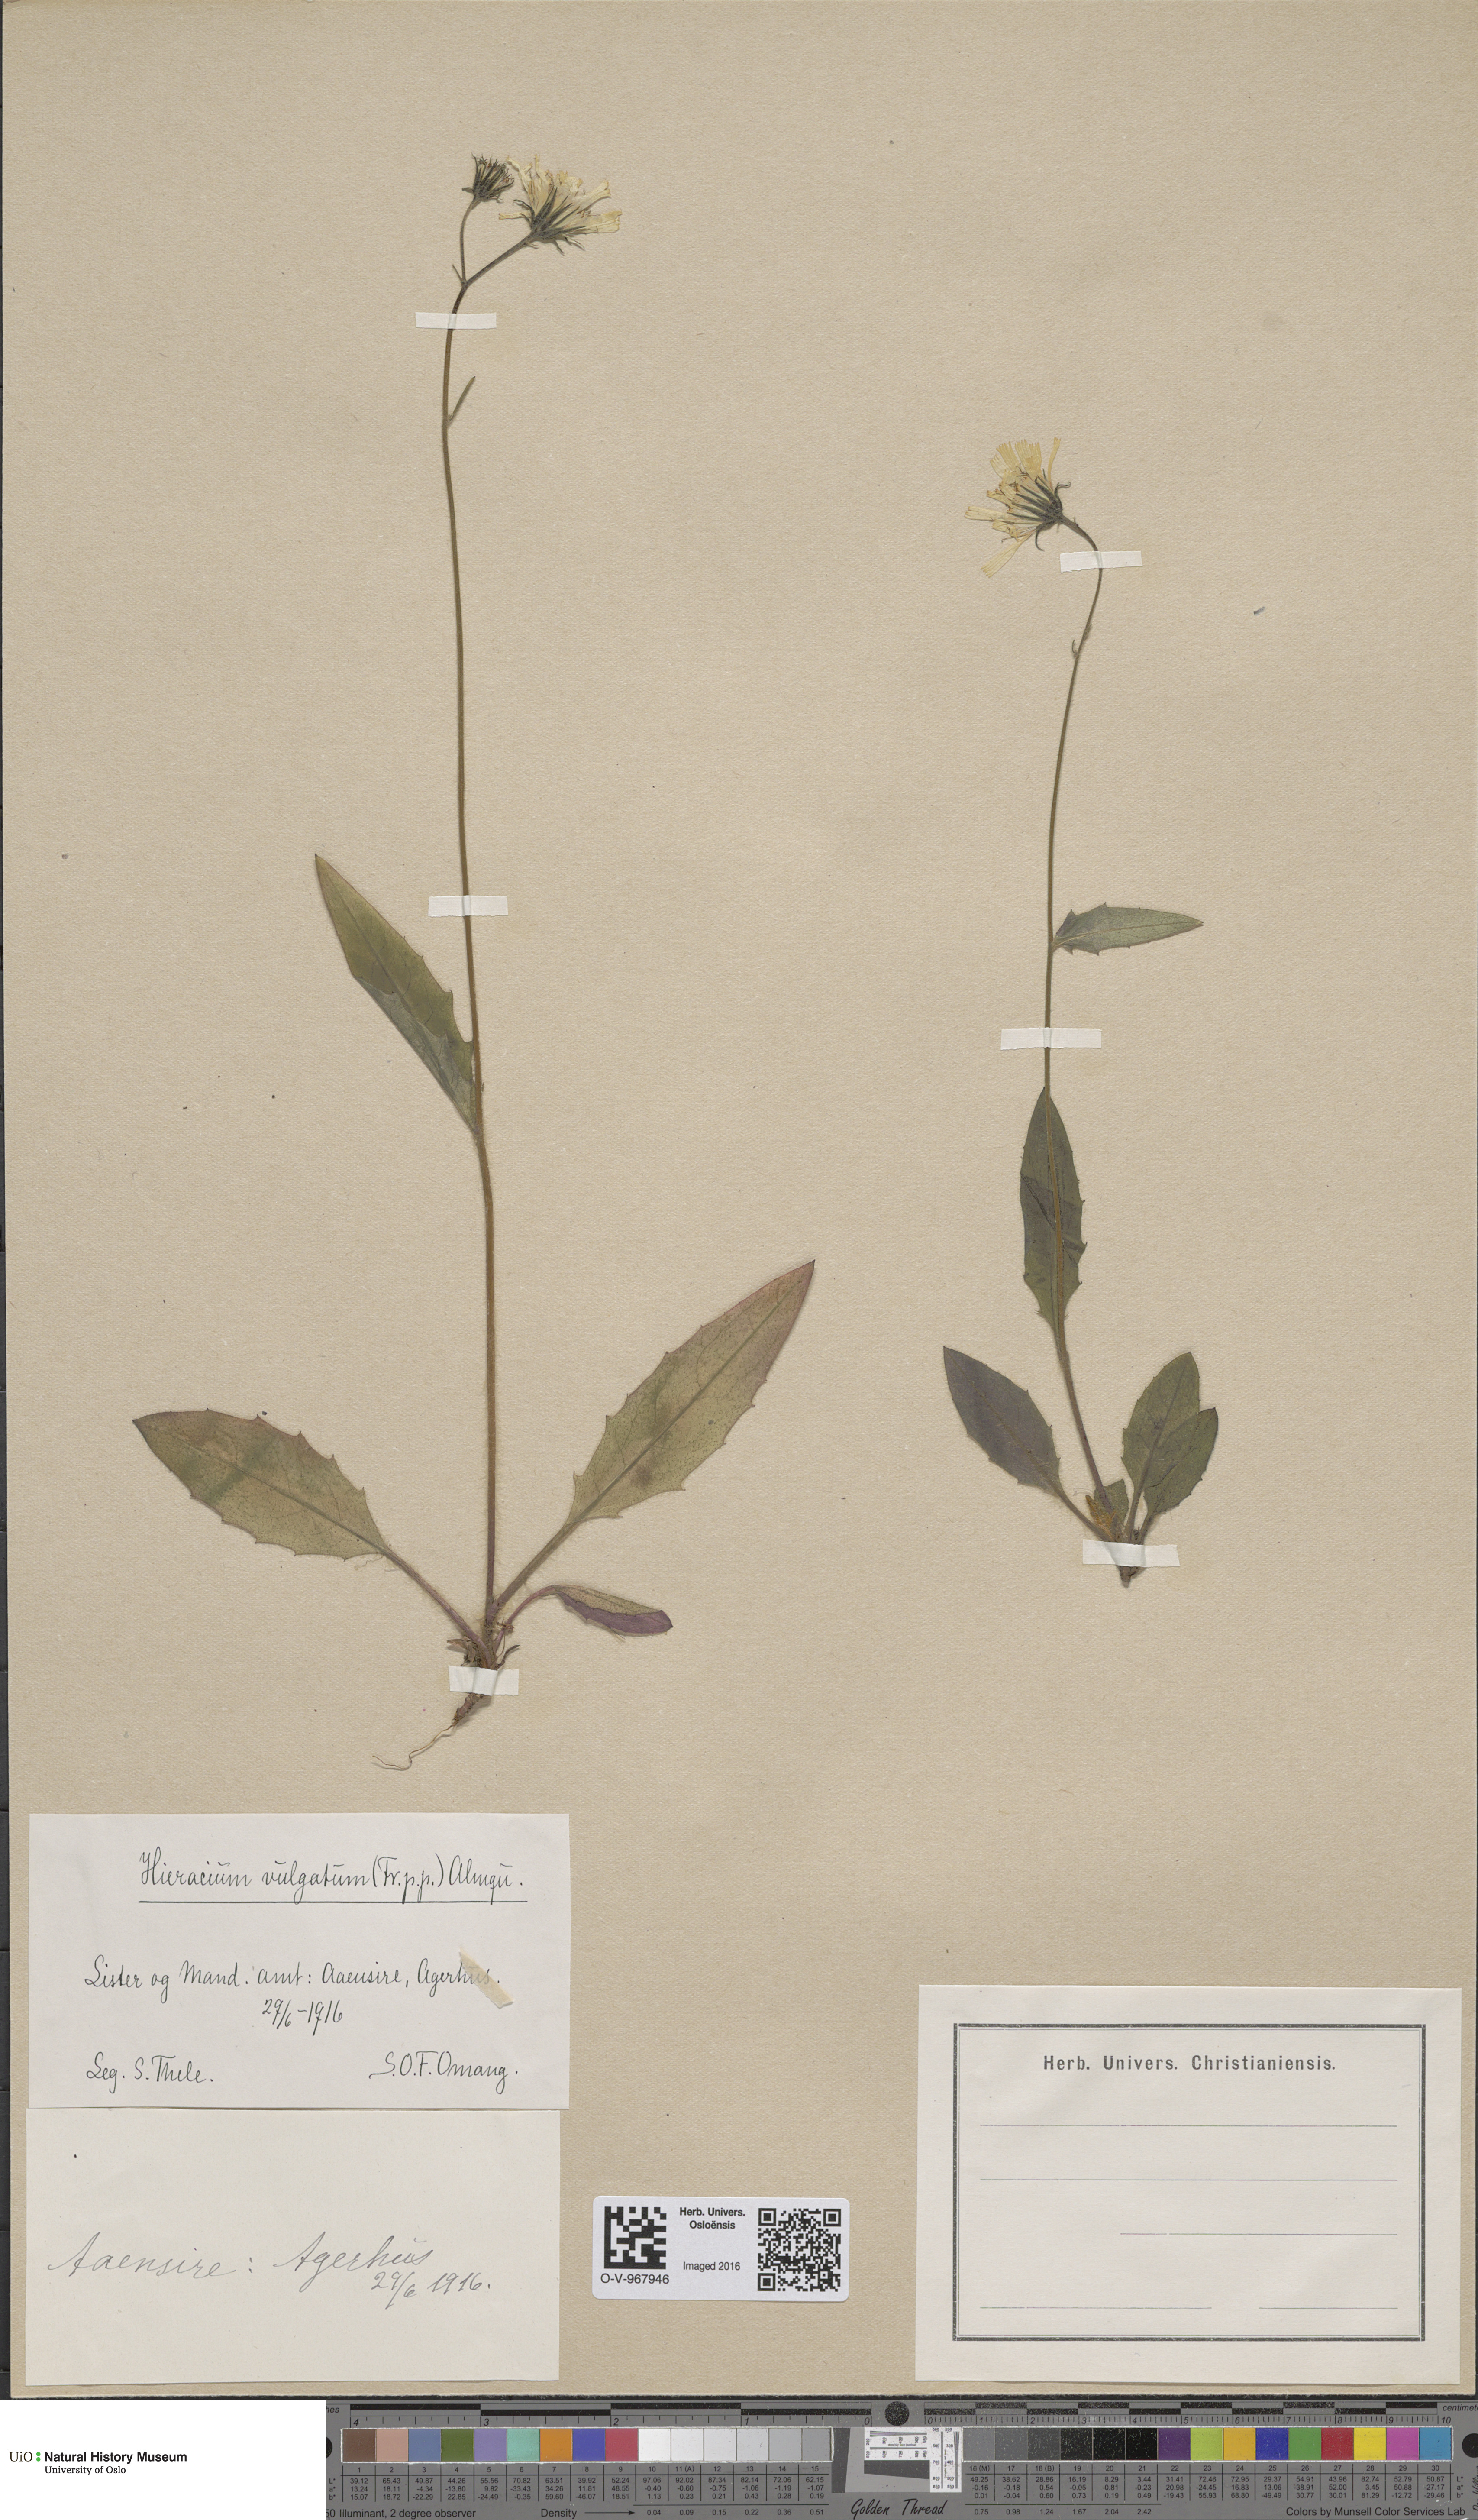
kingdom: Plantae
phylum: Tracheophyta
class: Magnoliopsida
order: Asterales
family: Asteraceae
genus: Hieracium
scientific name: Hieracium vulgatum
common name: Common hawkweed
